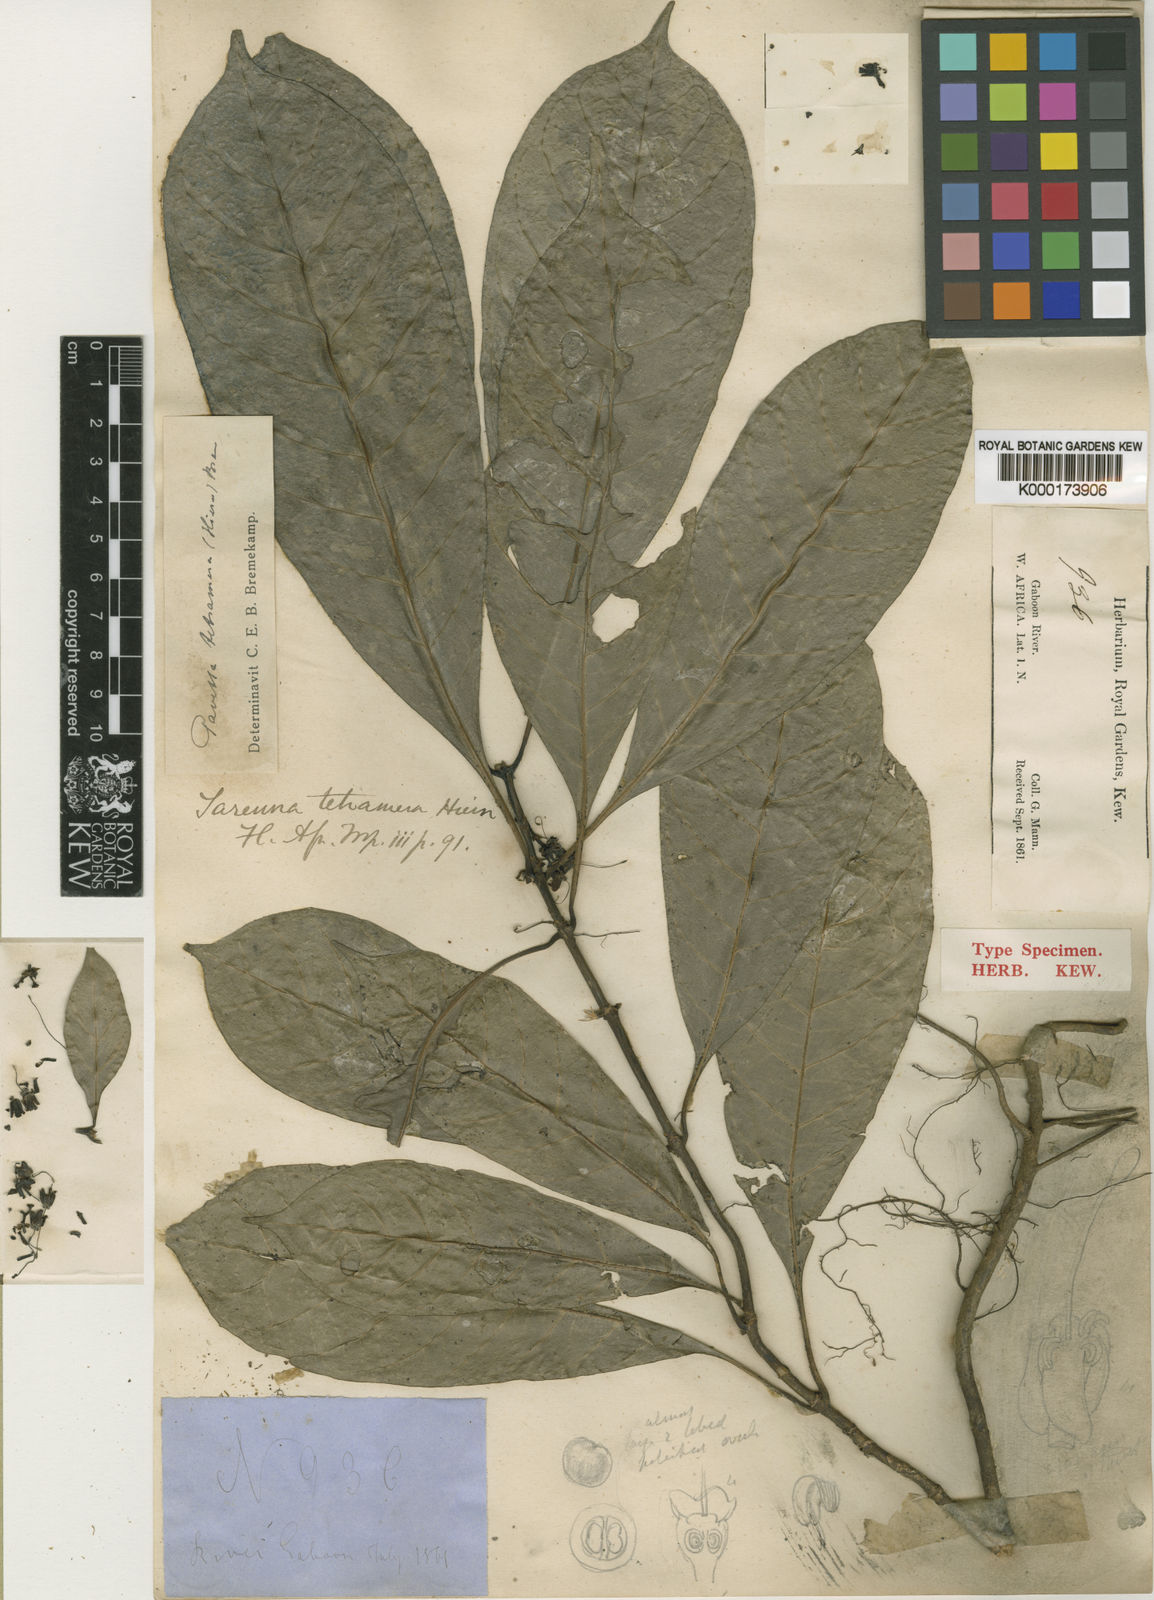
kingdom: Plantae
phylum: Tracheophyta
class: Magnoliopsida
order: Gentianales
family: Rubiaceae
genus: Pavetta
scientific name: Pavetta tetramera
